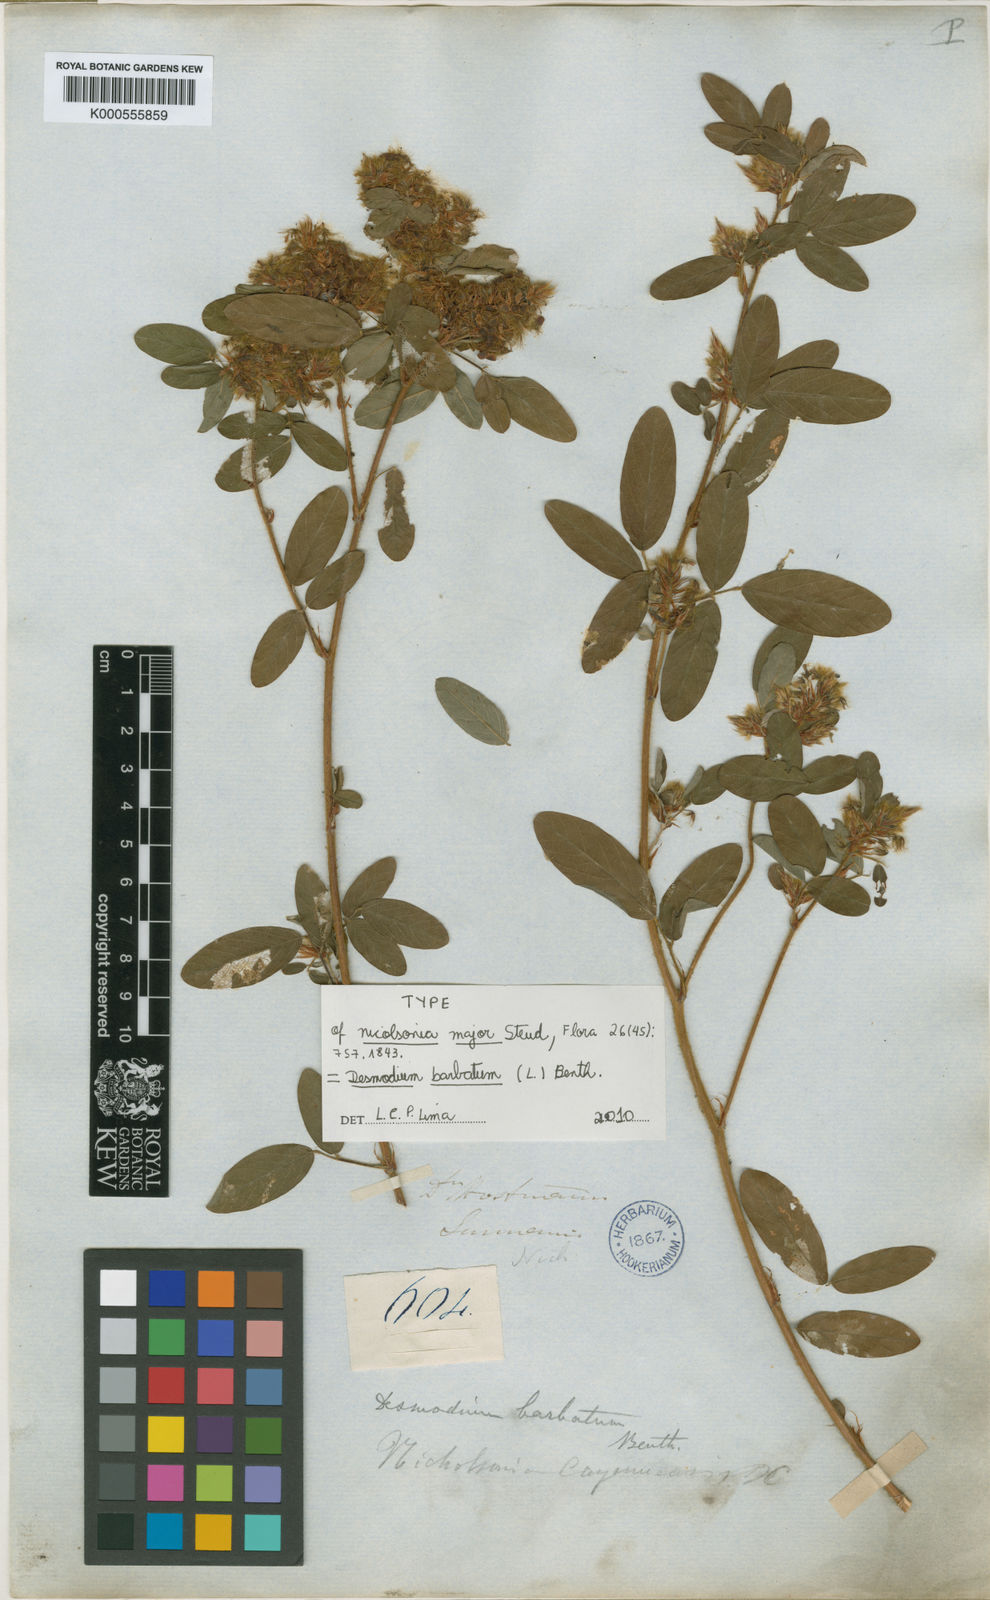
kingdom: Plantae
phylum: Tracheophyta
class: Magnoliopsida
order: Fabales
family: Fabaceae
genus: Grona
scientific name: Grona barbata
